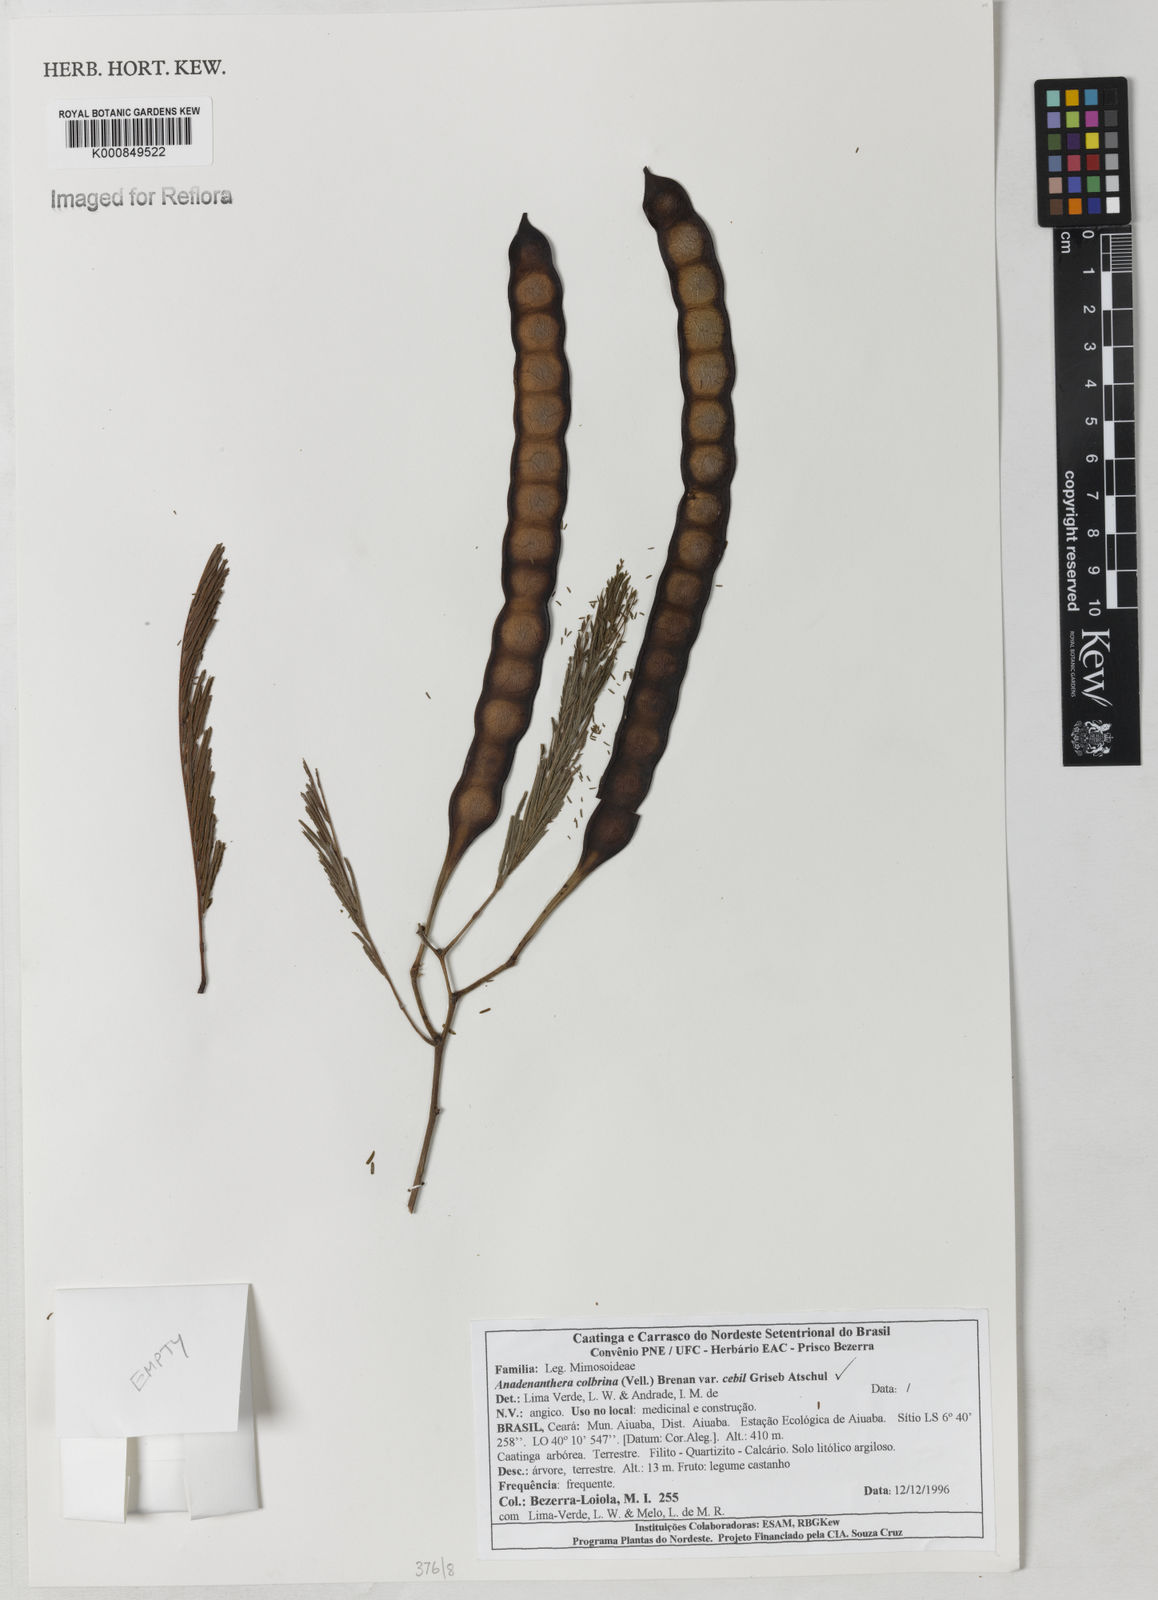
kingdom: Plantae
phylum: Tracheophyta
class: Magnoliopsida
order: Fabales
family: Fabaceae
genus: Anadenanthera
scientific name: Anadenanthera colubrina
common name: Curupay
